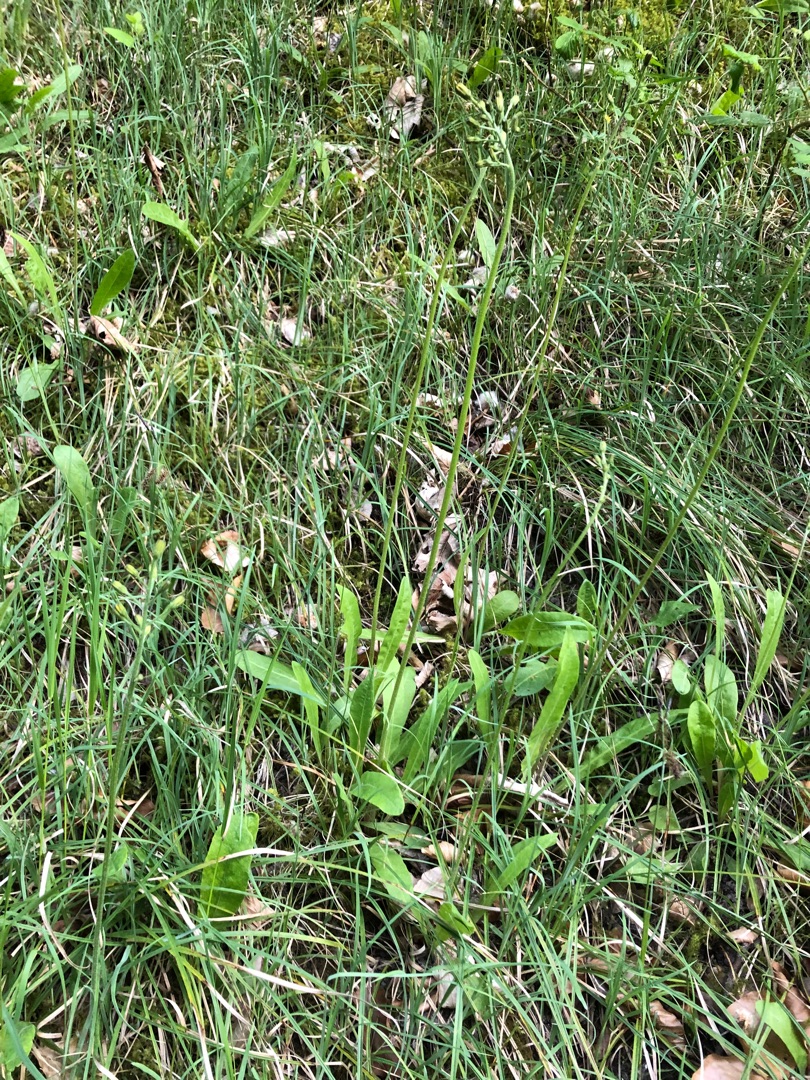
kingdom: Plantae
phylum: Tracheophyta
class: Magnoliopsida
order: Asterales
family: Asteraceae
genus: Crepis
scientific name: Crepis praemorsa
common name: Afbidt høgeskæg
